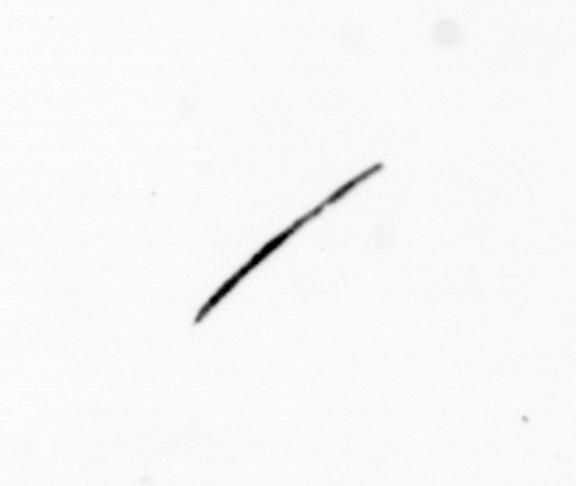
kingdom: Bacteria
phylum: Cyanobacteria
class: Cyanobacteriia
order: Cyanobacteriales
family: Microcoleaceae
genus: Trichodesmium
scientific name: Trichodesmium
